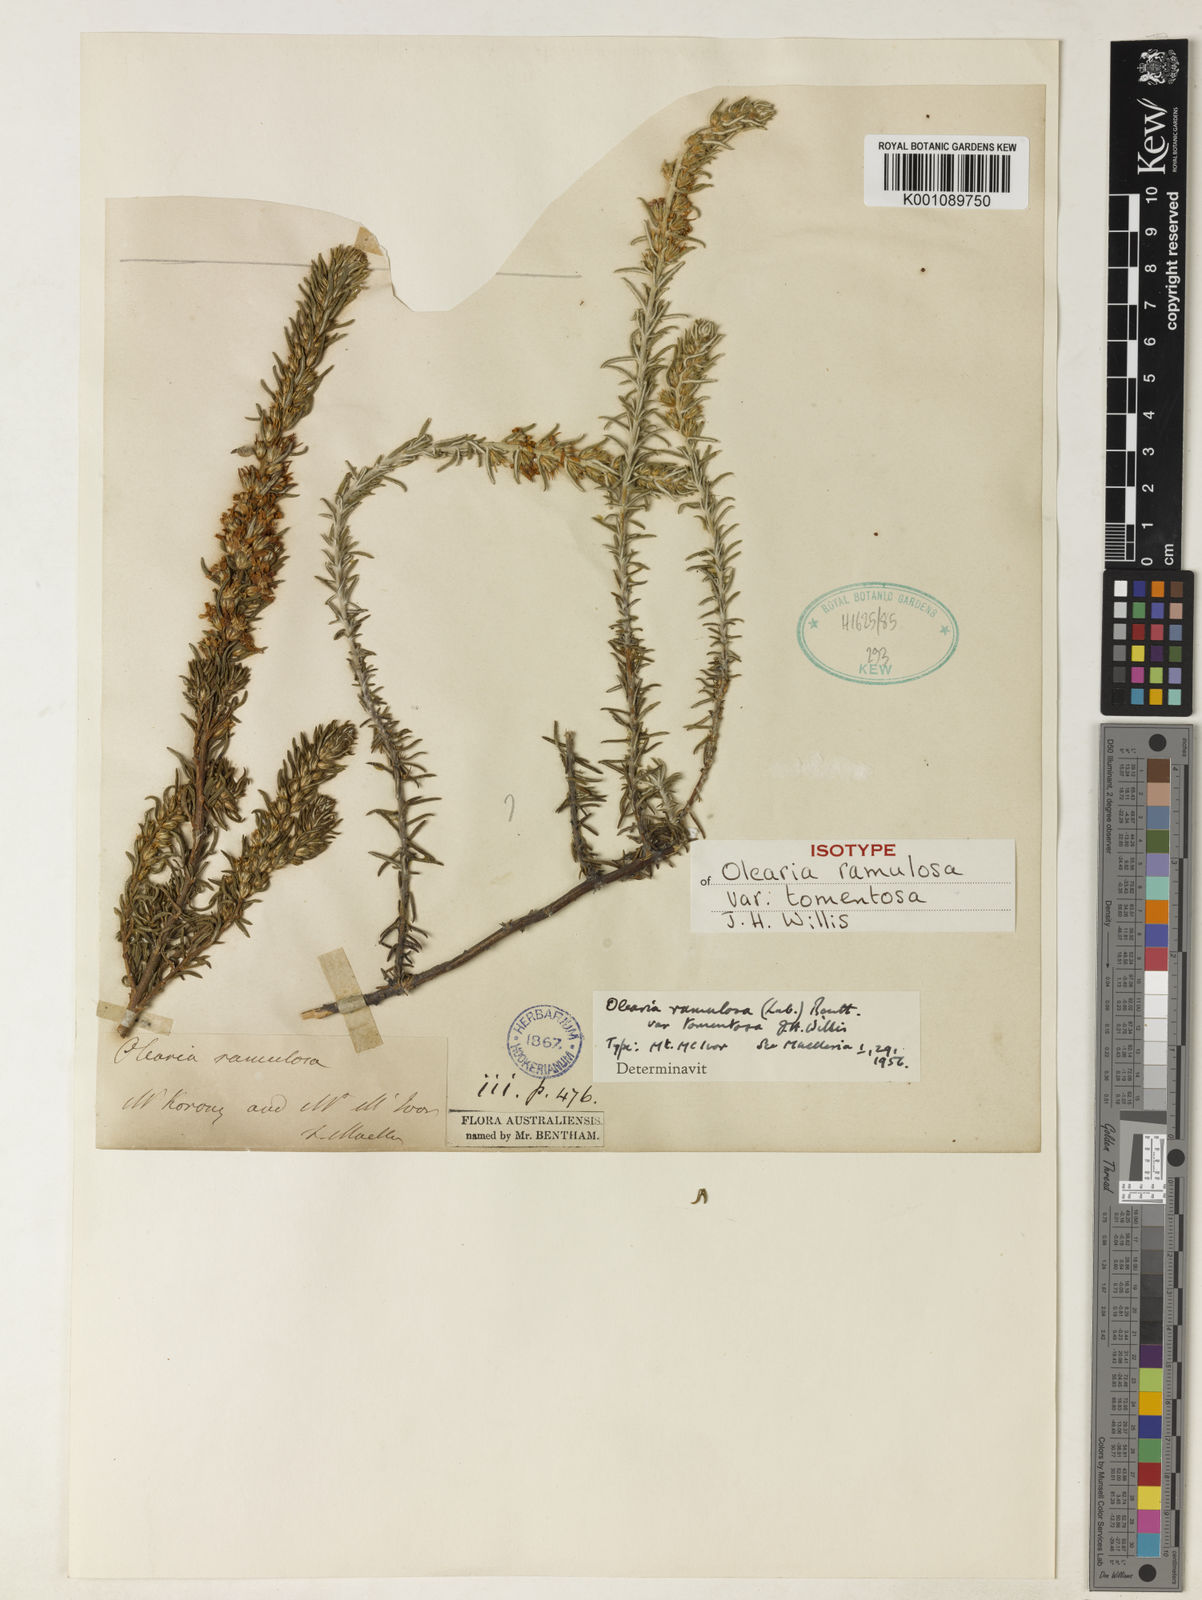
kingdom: Plantae
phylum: Tracheophyta
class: Magnoliopsida
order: Asterales
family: Asteraceae
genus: Olearia
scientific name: Olearia ramulosa
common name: Twiggy daisybush
